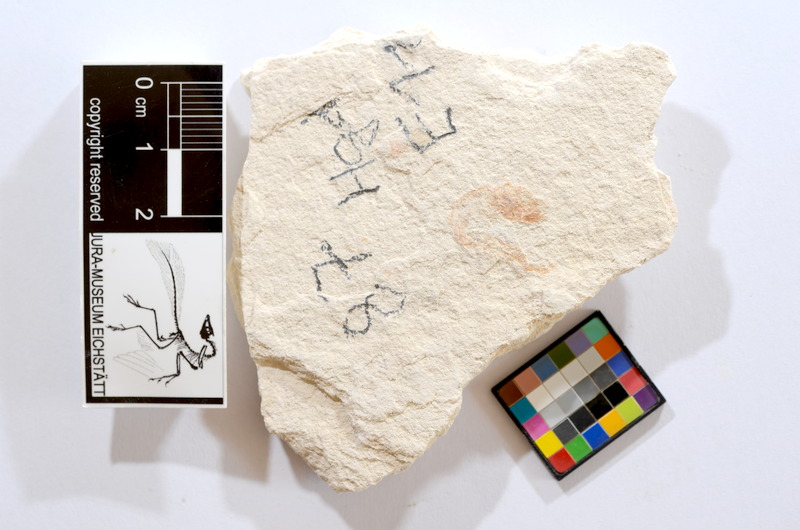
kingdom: Animalia
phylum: Chordata
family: Ascalaboidae
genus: Tharsis
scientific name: Tharsis dubius
